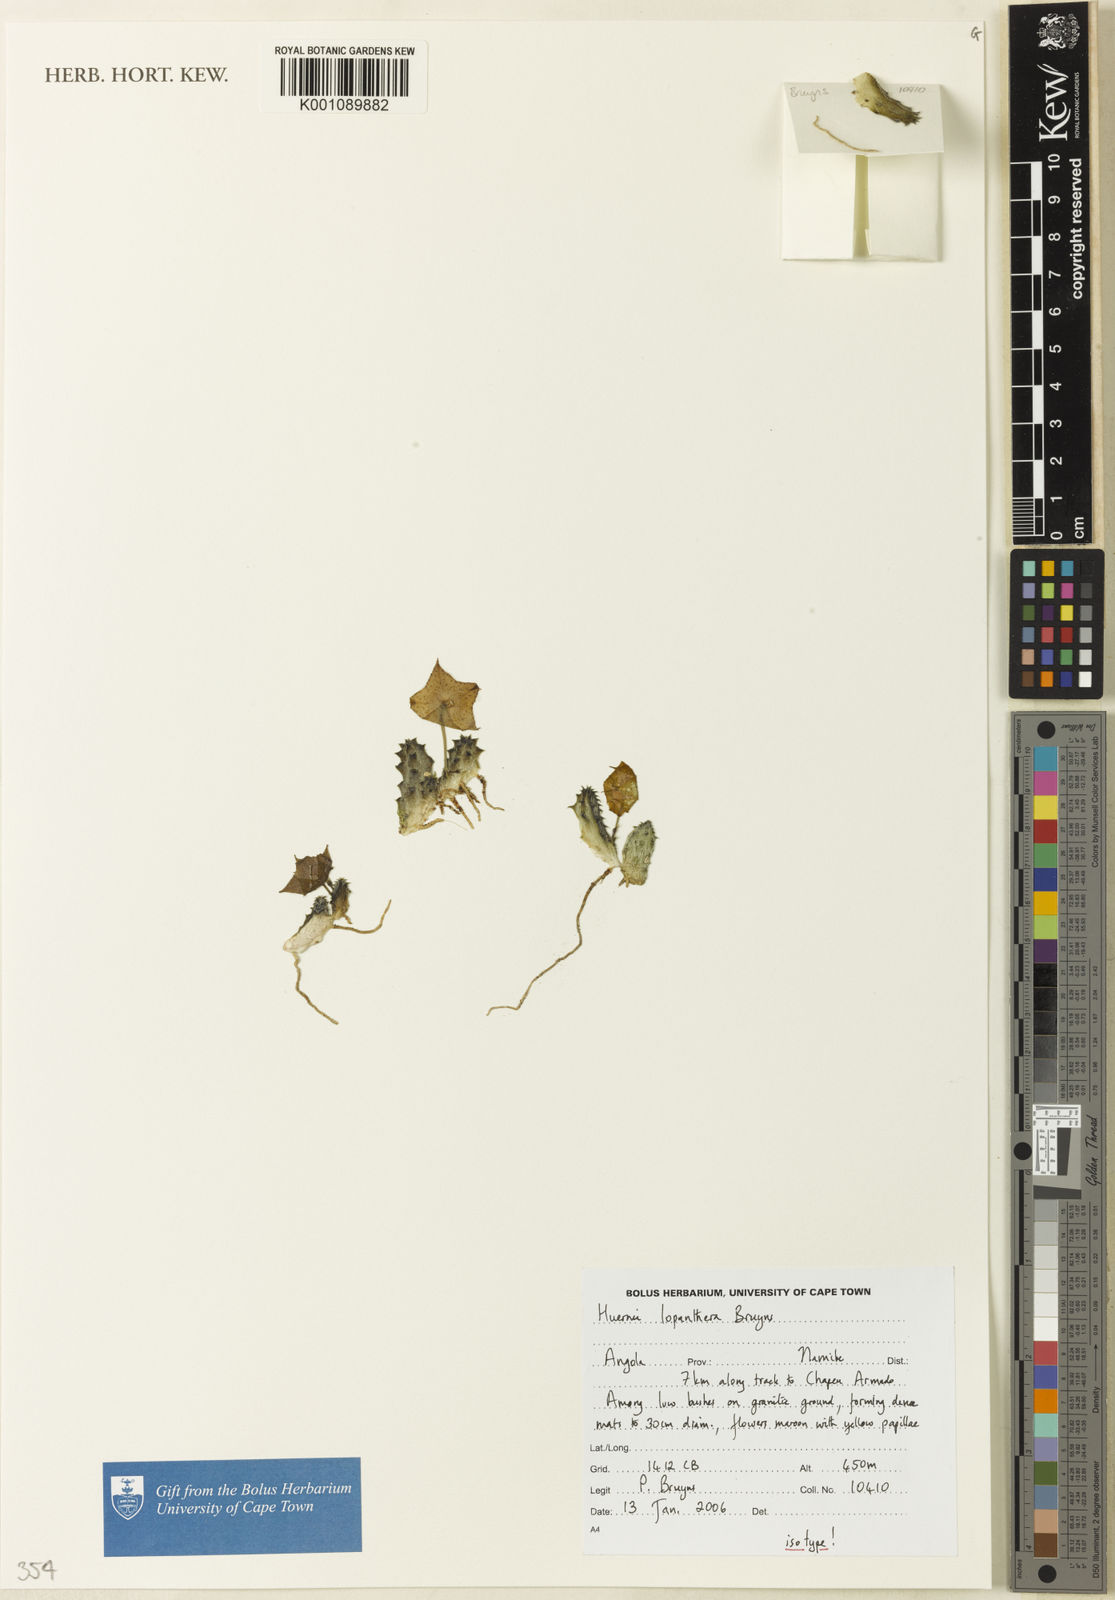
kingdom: Plantae
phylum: Tracheophyta
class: Magnoliopsida
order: Gentianales
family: Apocynaceae
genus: Ceropegia
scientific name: Ceropegia lopanthera
